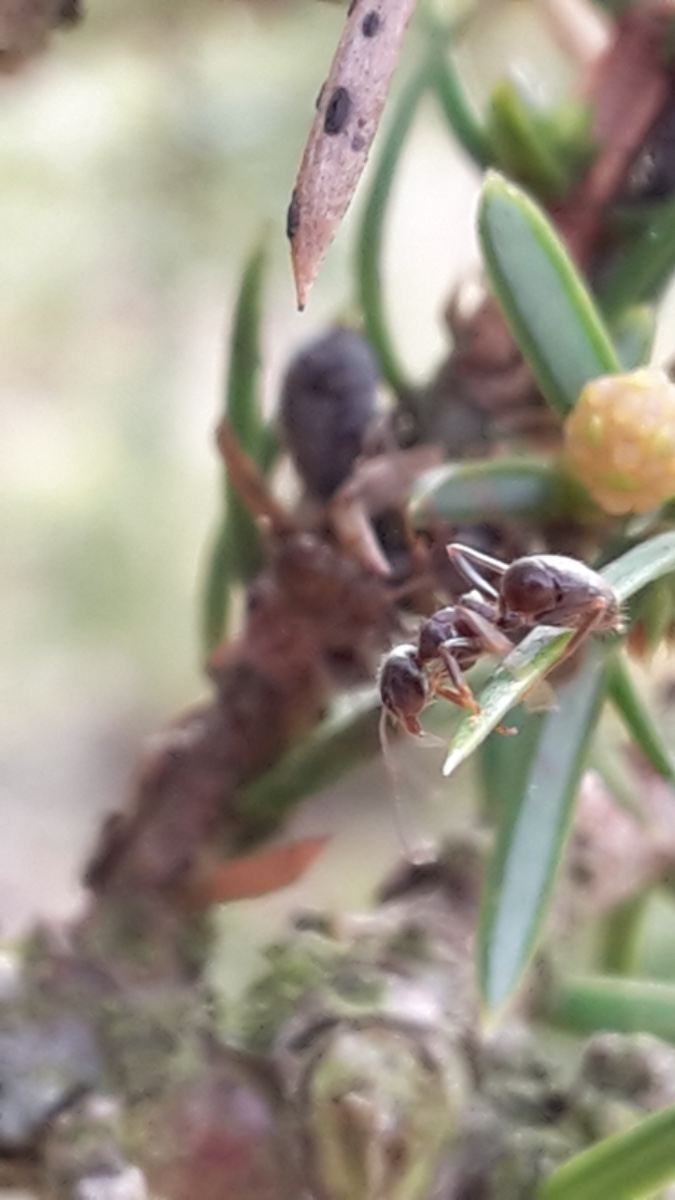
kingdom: Fungi
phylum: Ascomycota
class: Leotiomycetes
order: Rhytismatales
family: Rhytismataceae
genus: Lophodermium
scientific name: Lophodermium juniperinum
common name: ene-fureplet
